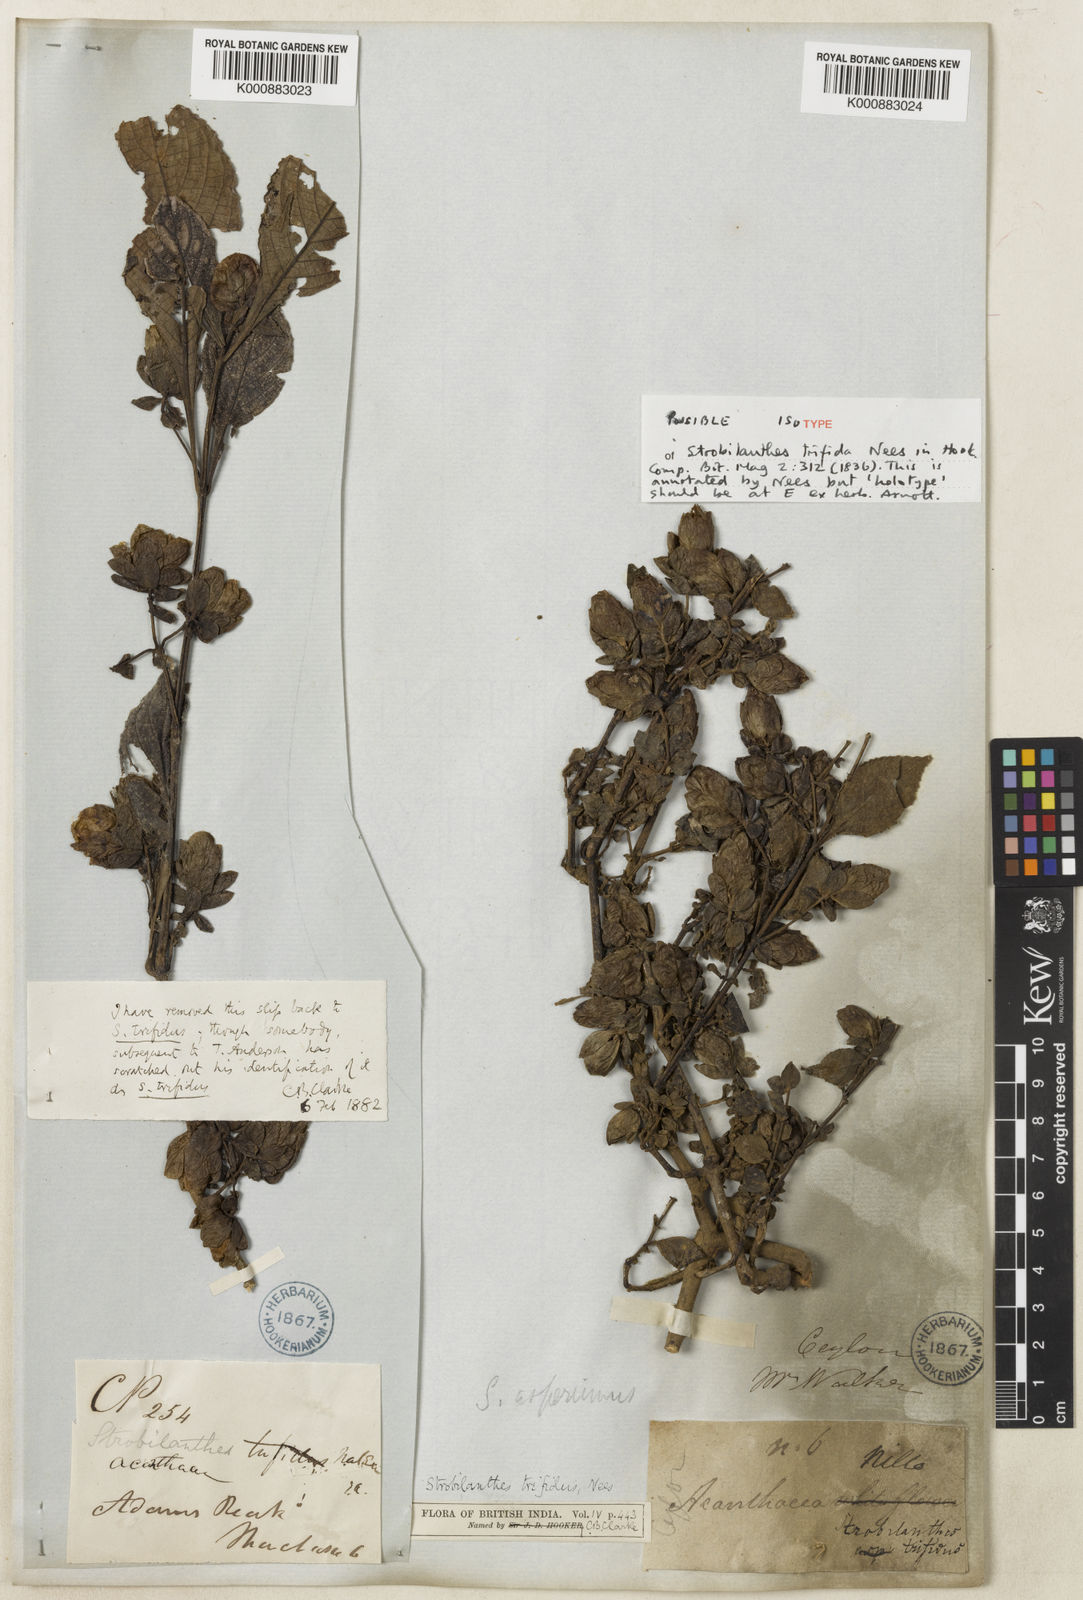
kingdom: Plantae
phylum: Tracheophyta
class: Magnoliopsida
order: Lamiales
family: Acanthaceae
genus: Strobilanthes
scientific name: Strobilanthes
